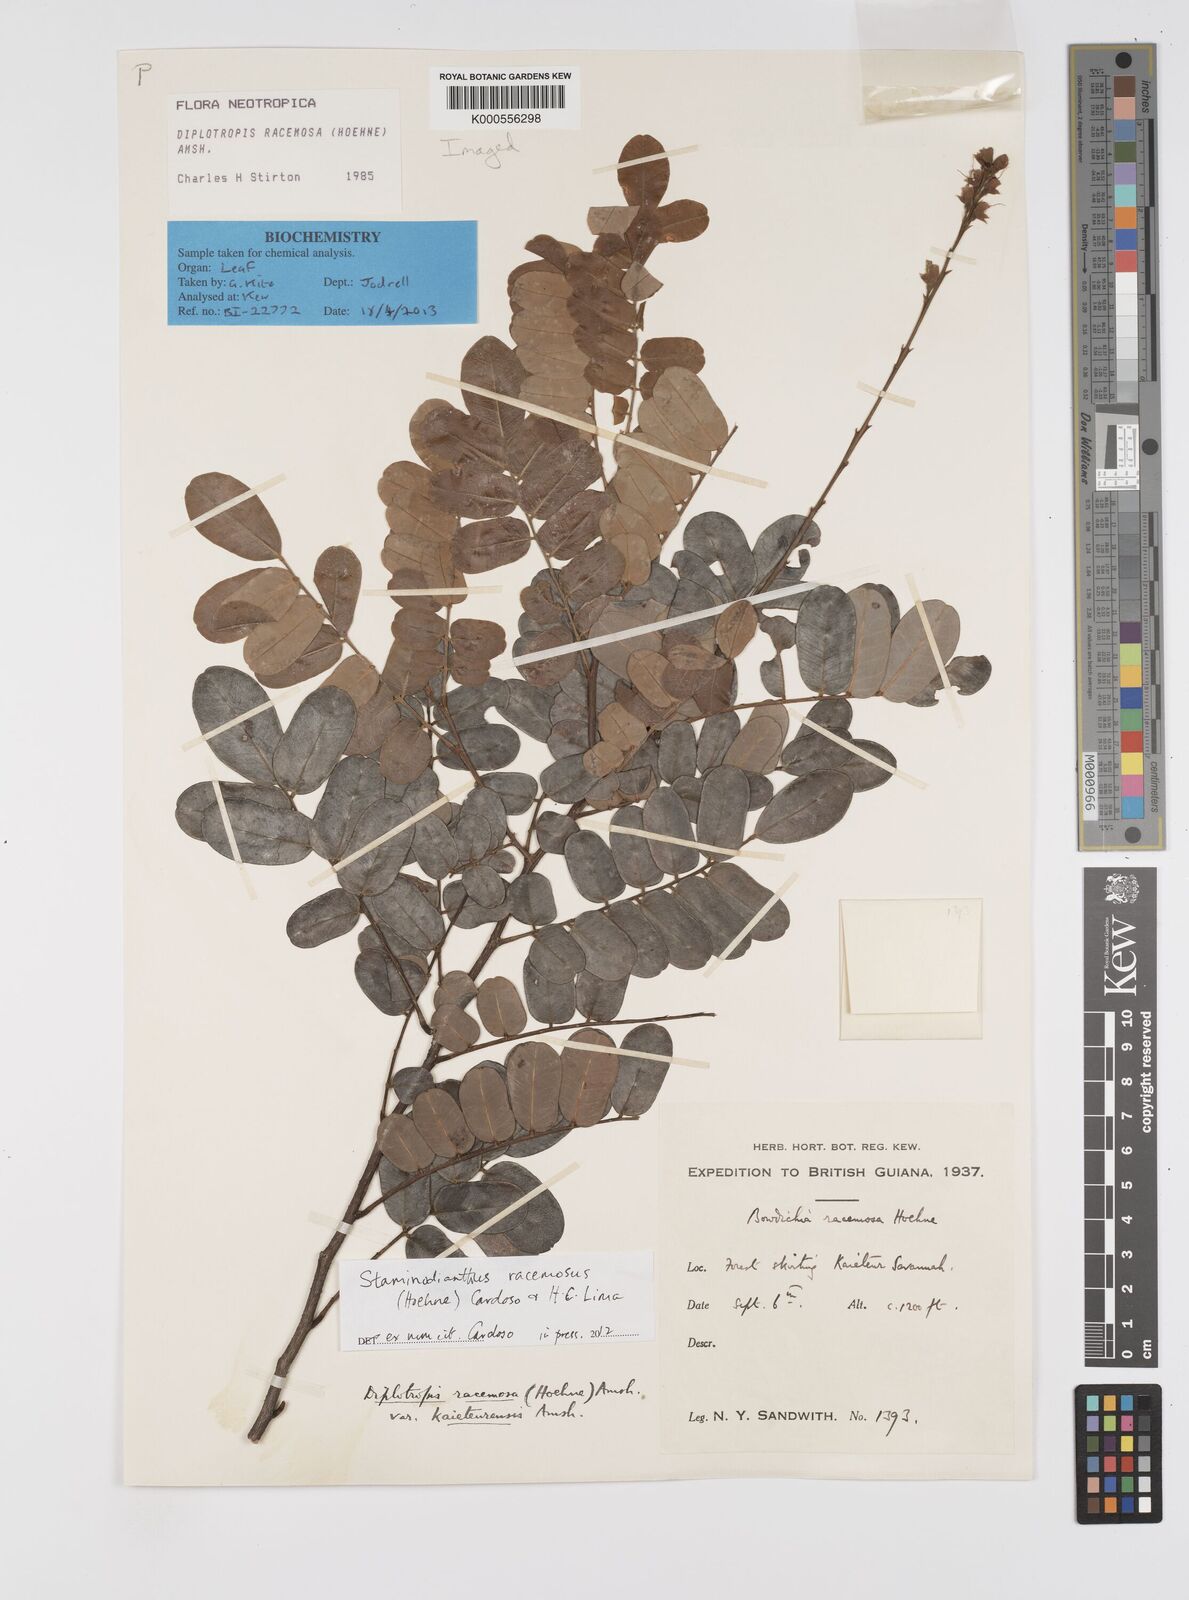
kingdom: Plantae
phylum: Tracheophyta
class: Magnoliopsida
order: Fabales
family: Fabaceae
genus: Staminodianthus
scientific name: Staminodianthus racemosus
